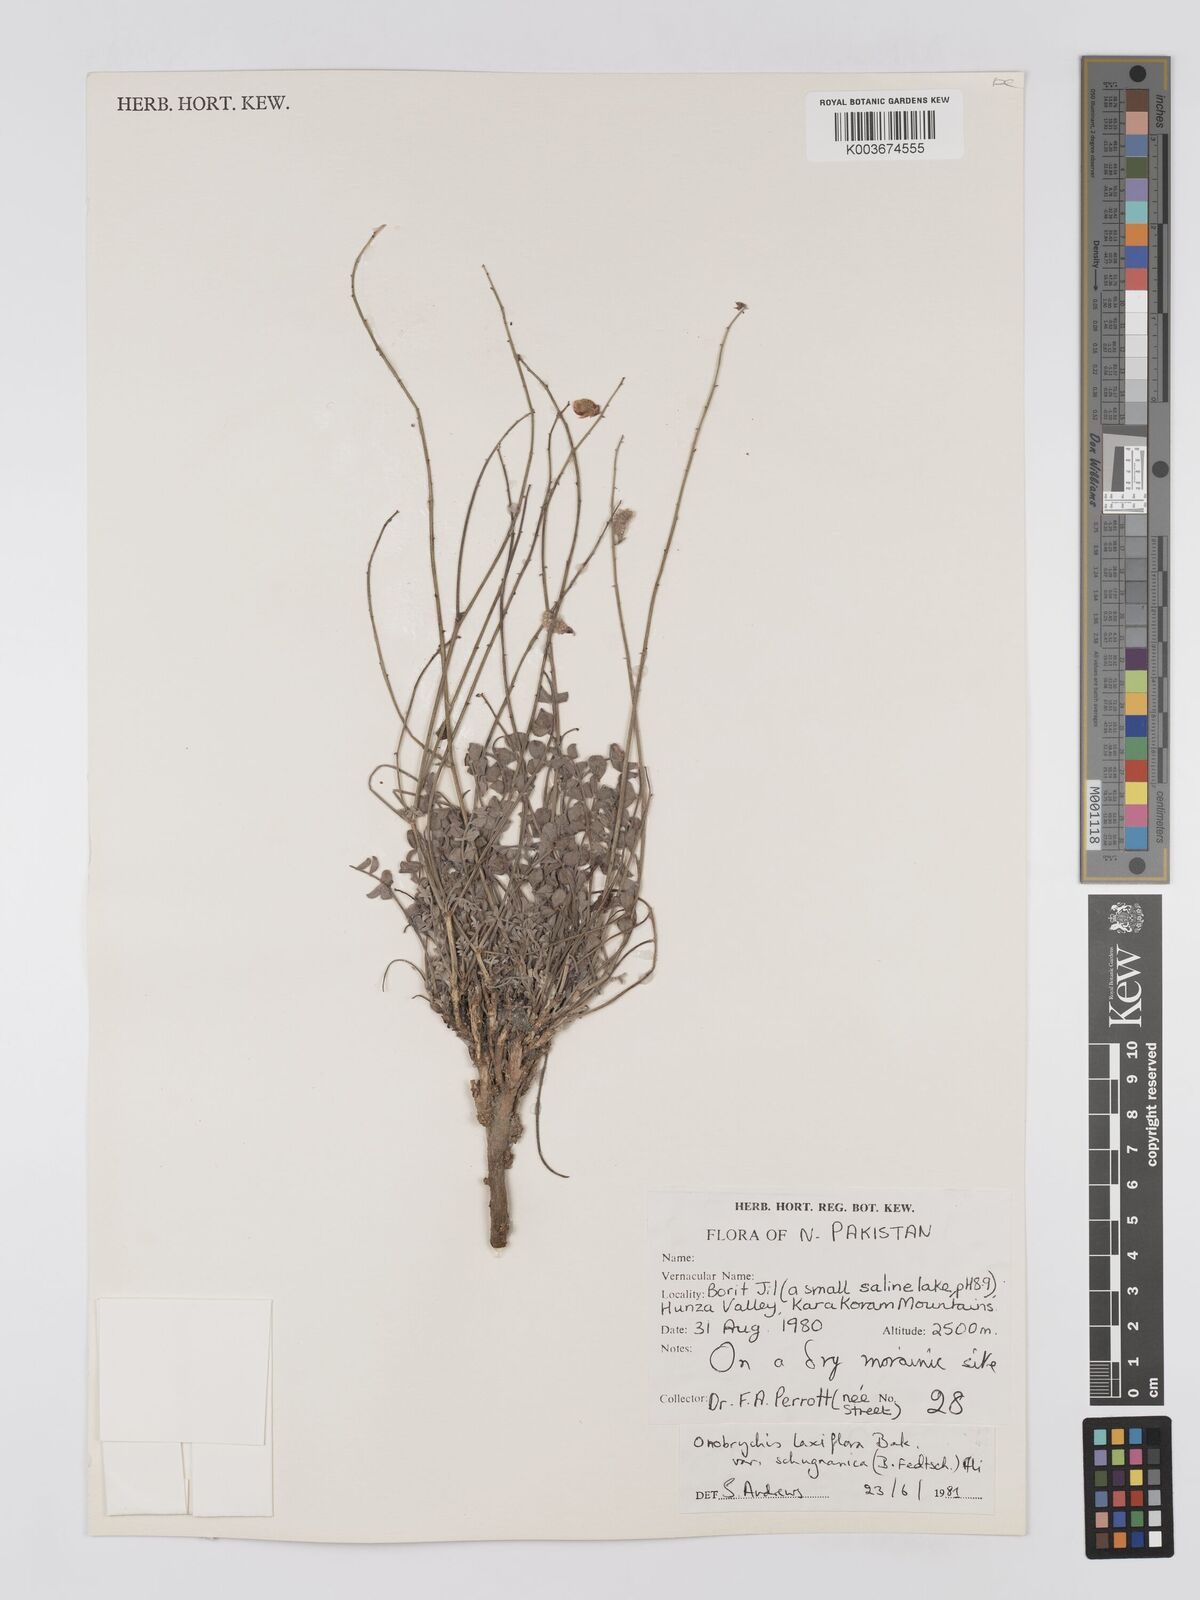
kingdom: Plantae
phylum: Tracheophyta
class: Magnoliopsida
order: Fabales
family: Fabaceae
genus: Onobrychis
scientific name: Onobrychis laxiflora
